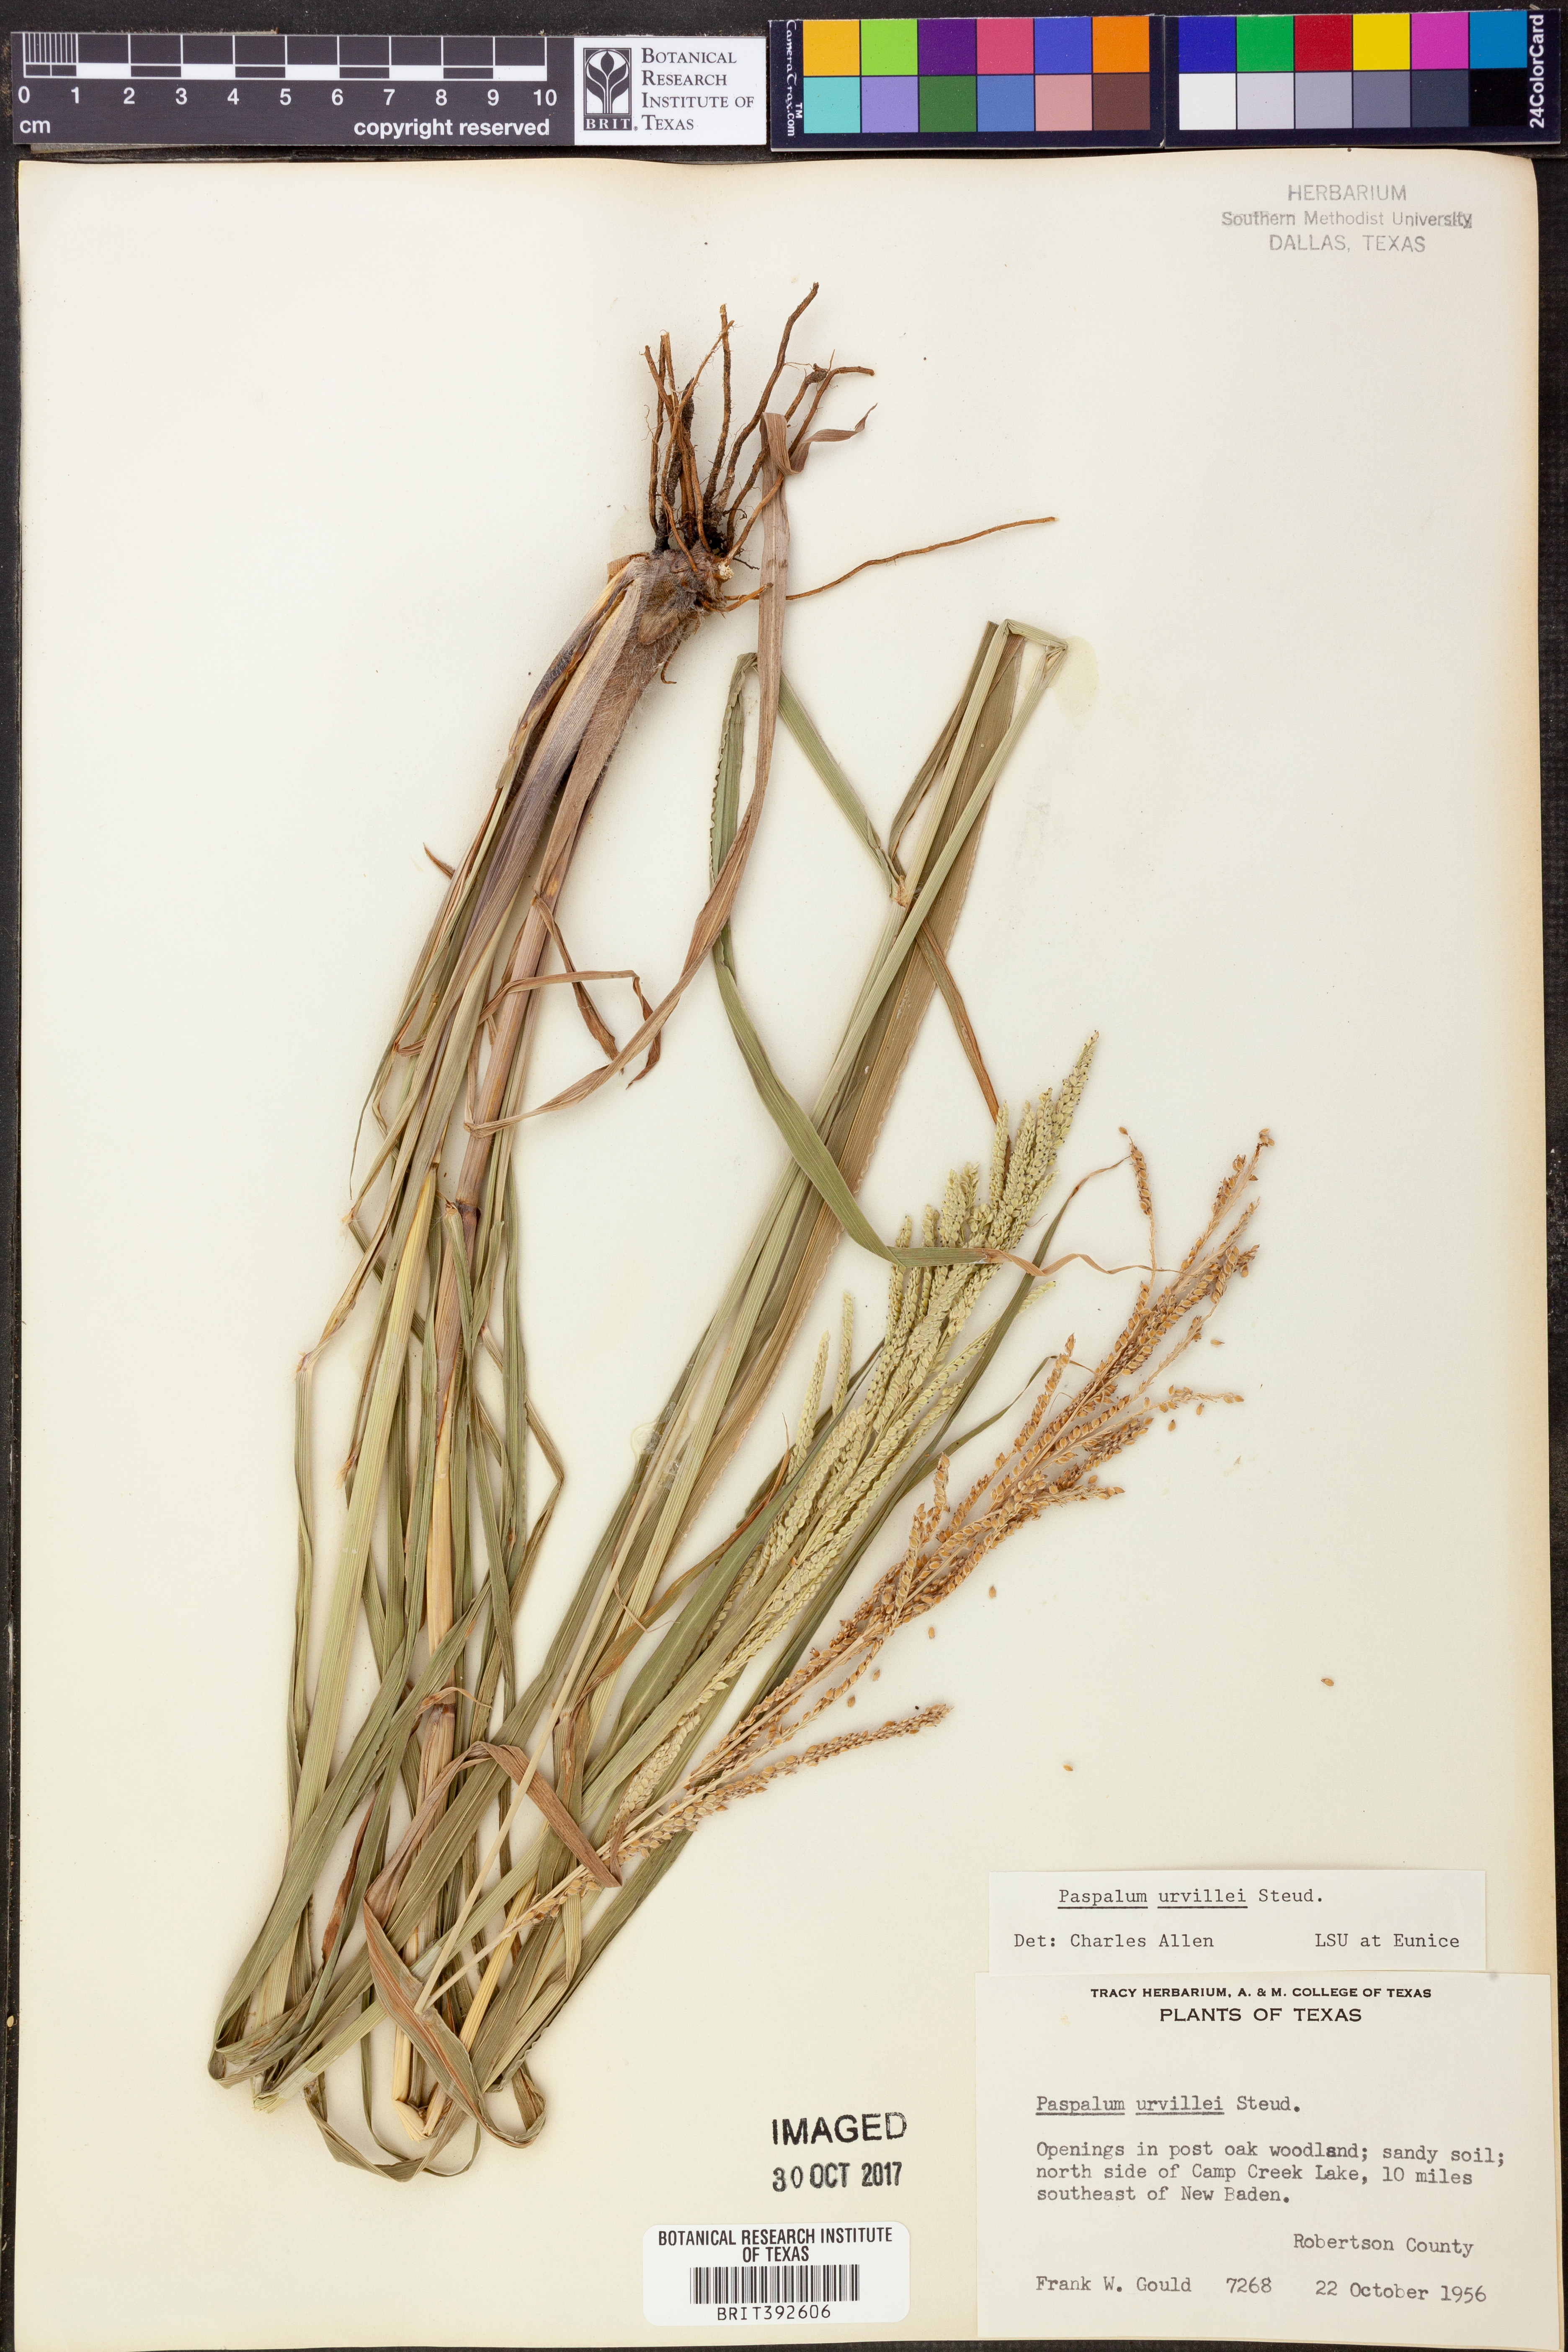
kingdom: Plantae
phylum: Tracheophyta
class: Liliopsida
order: Poales
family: Poaceae
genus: Paspalum
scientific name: Paspalum urvillei
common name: Vasey's grass
